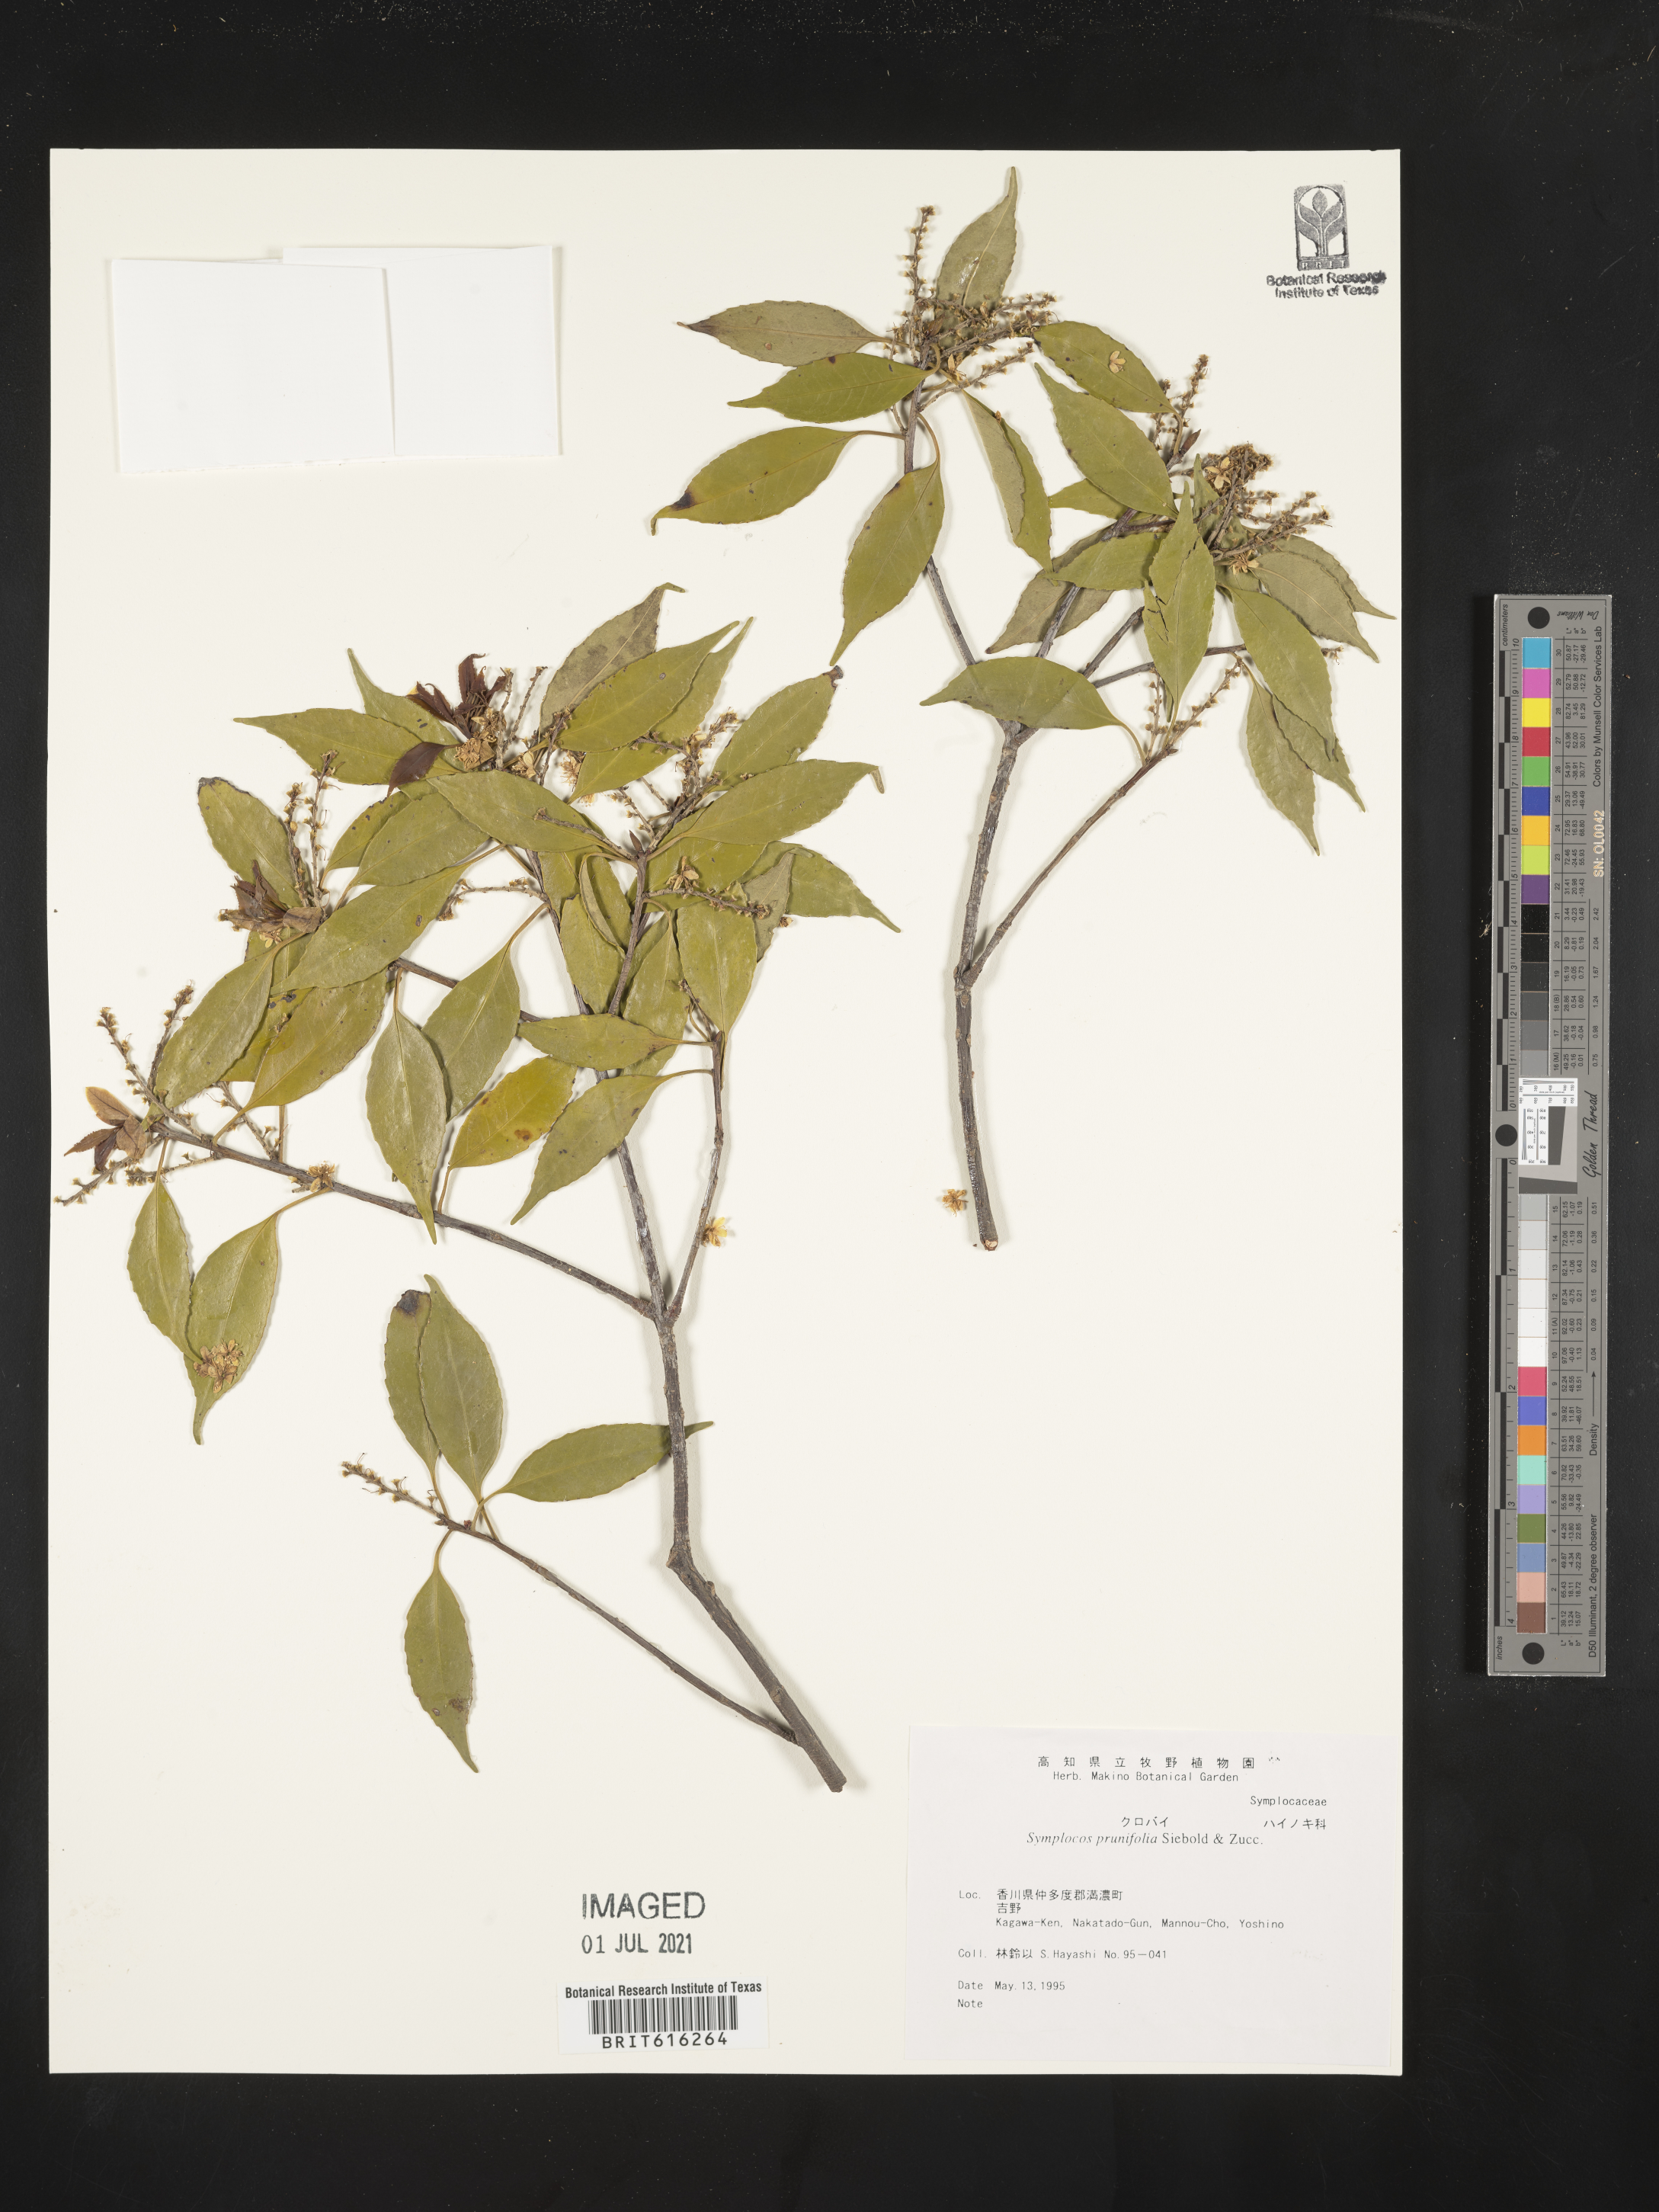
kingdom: Plantae
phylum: Tracheophyta
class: Magnoliopsida
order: Ericales
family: Symplocaceae
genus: Symplocos
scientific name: Symplocos sumuntia
